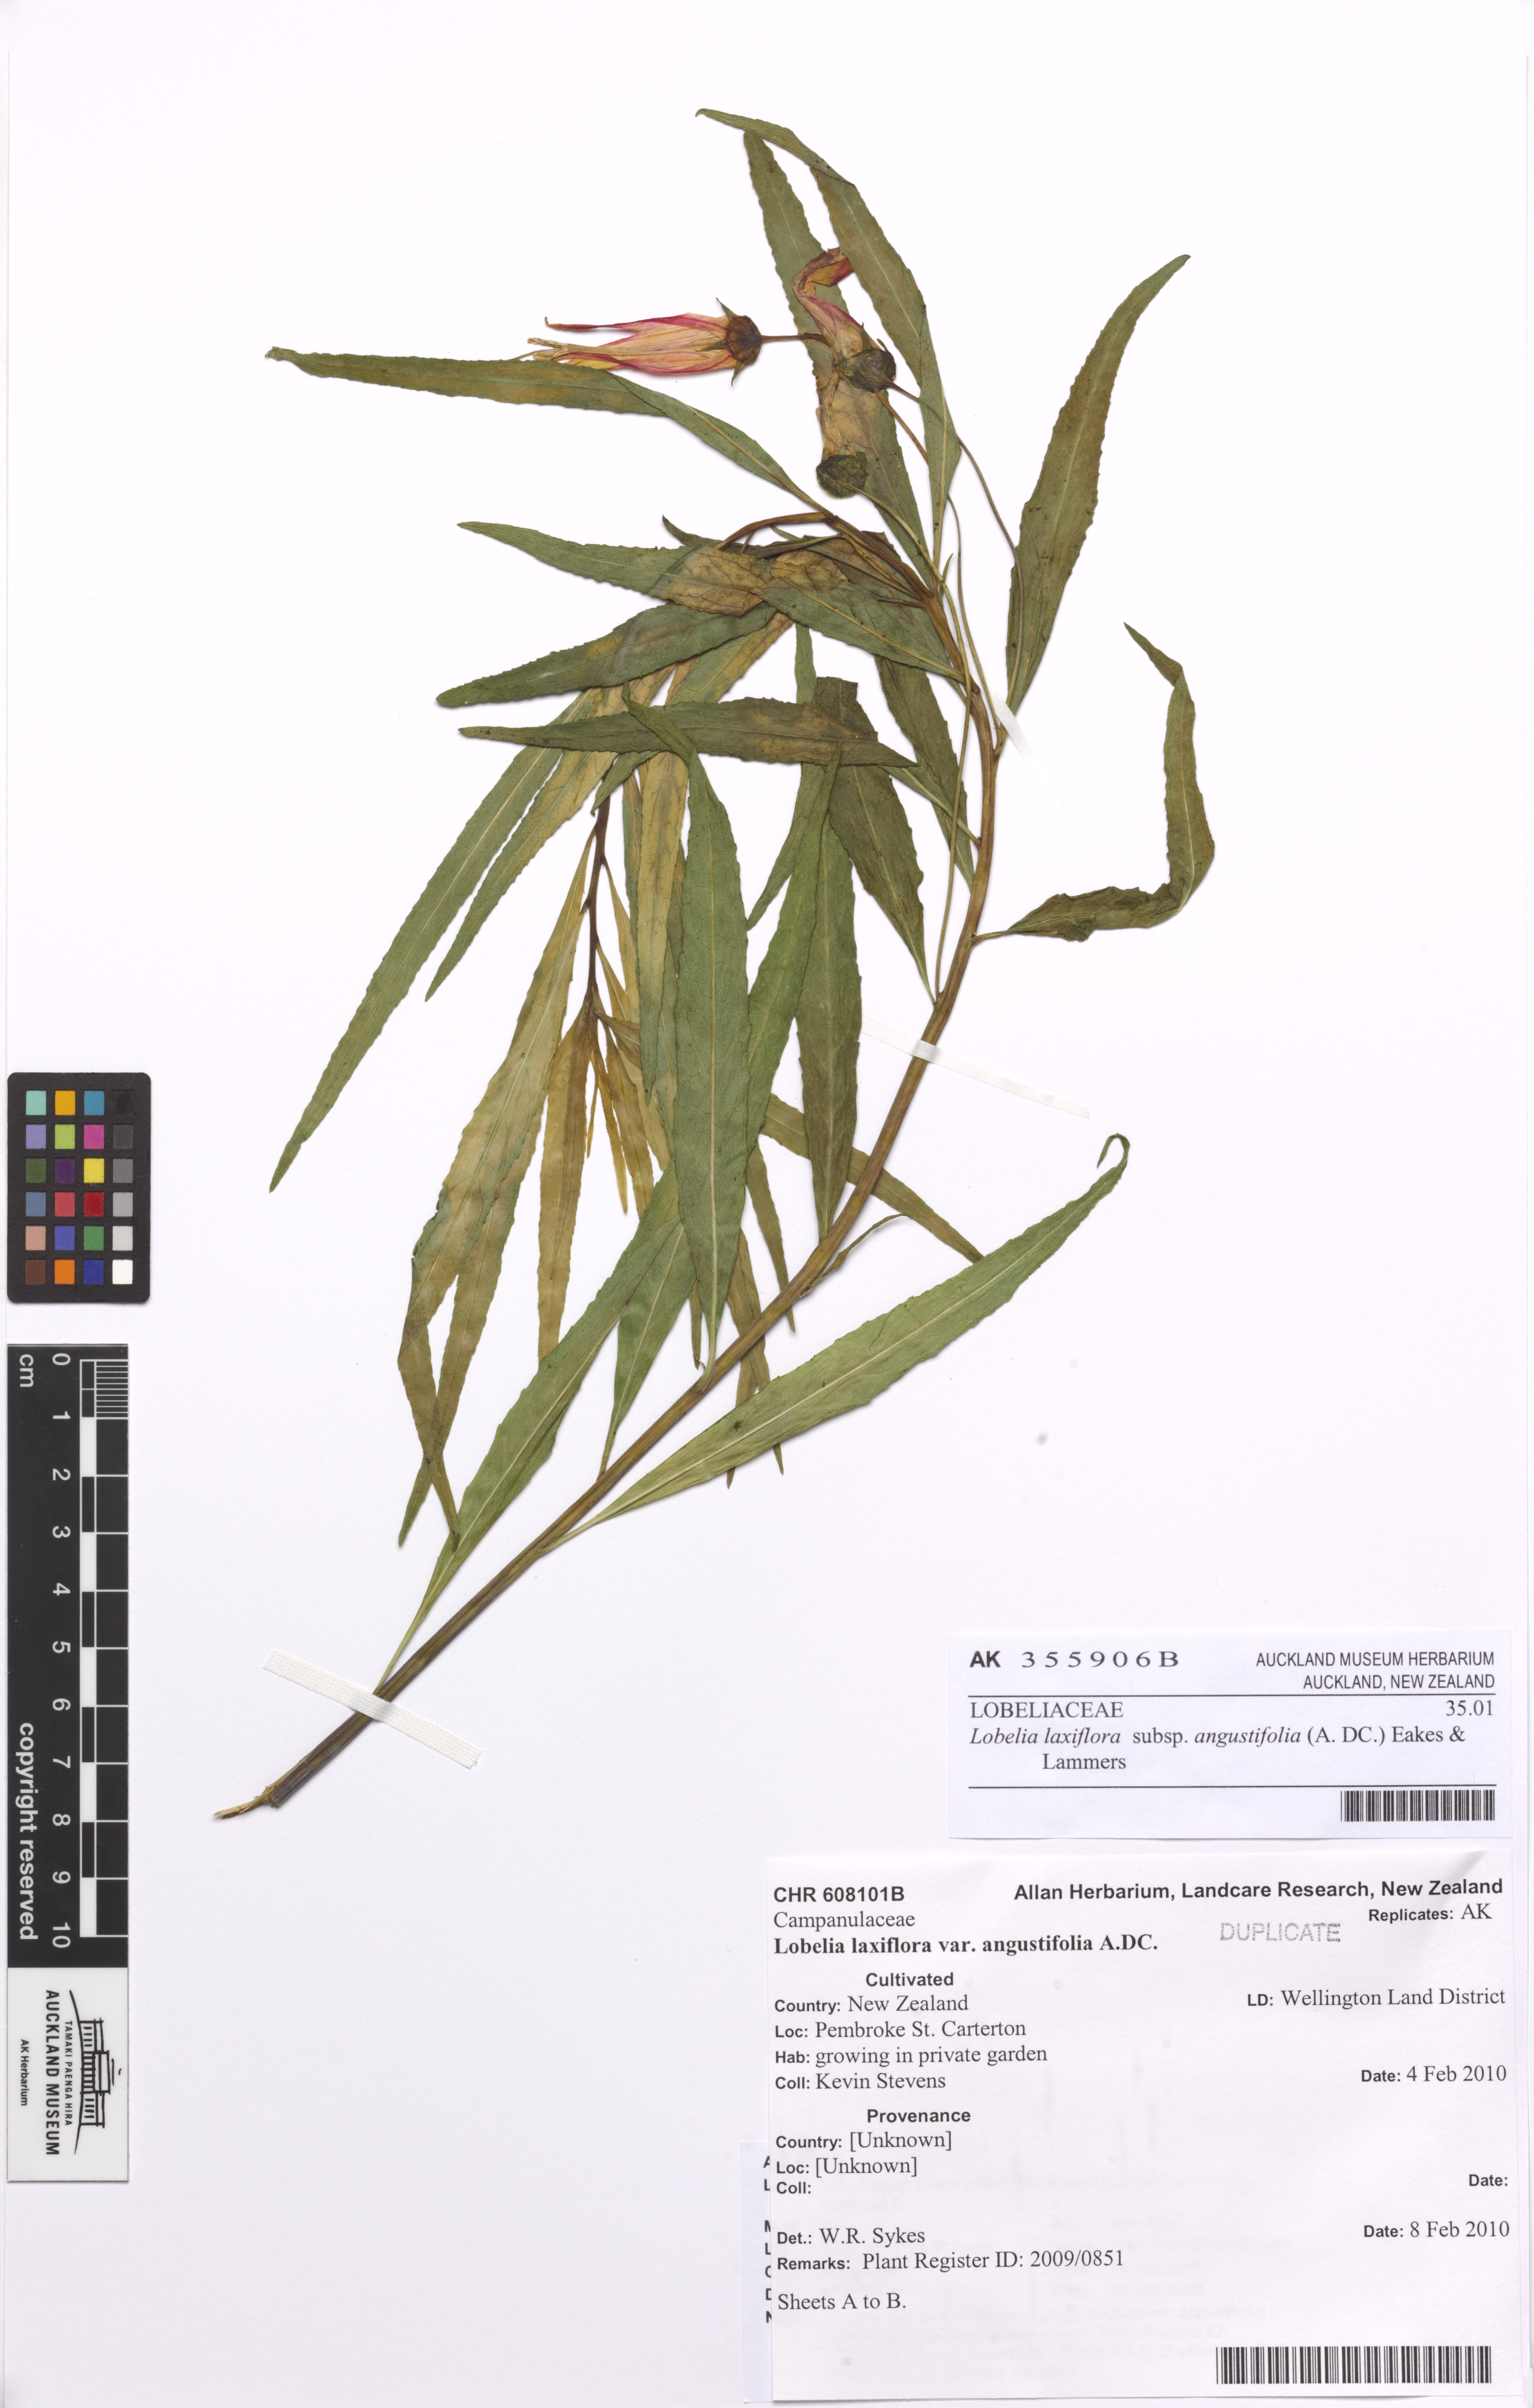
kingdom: Plantae
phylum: Tracheophyta
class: Magnoliopsida
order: Asterales
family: Campanulaceae
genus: Lobelia
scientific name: Lobelia laxiflora
